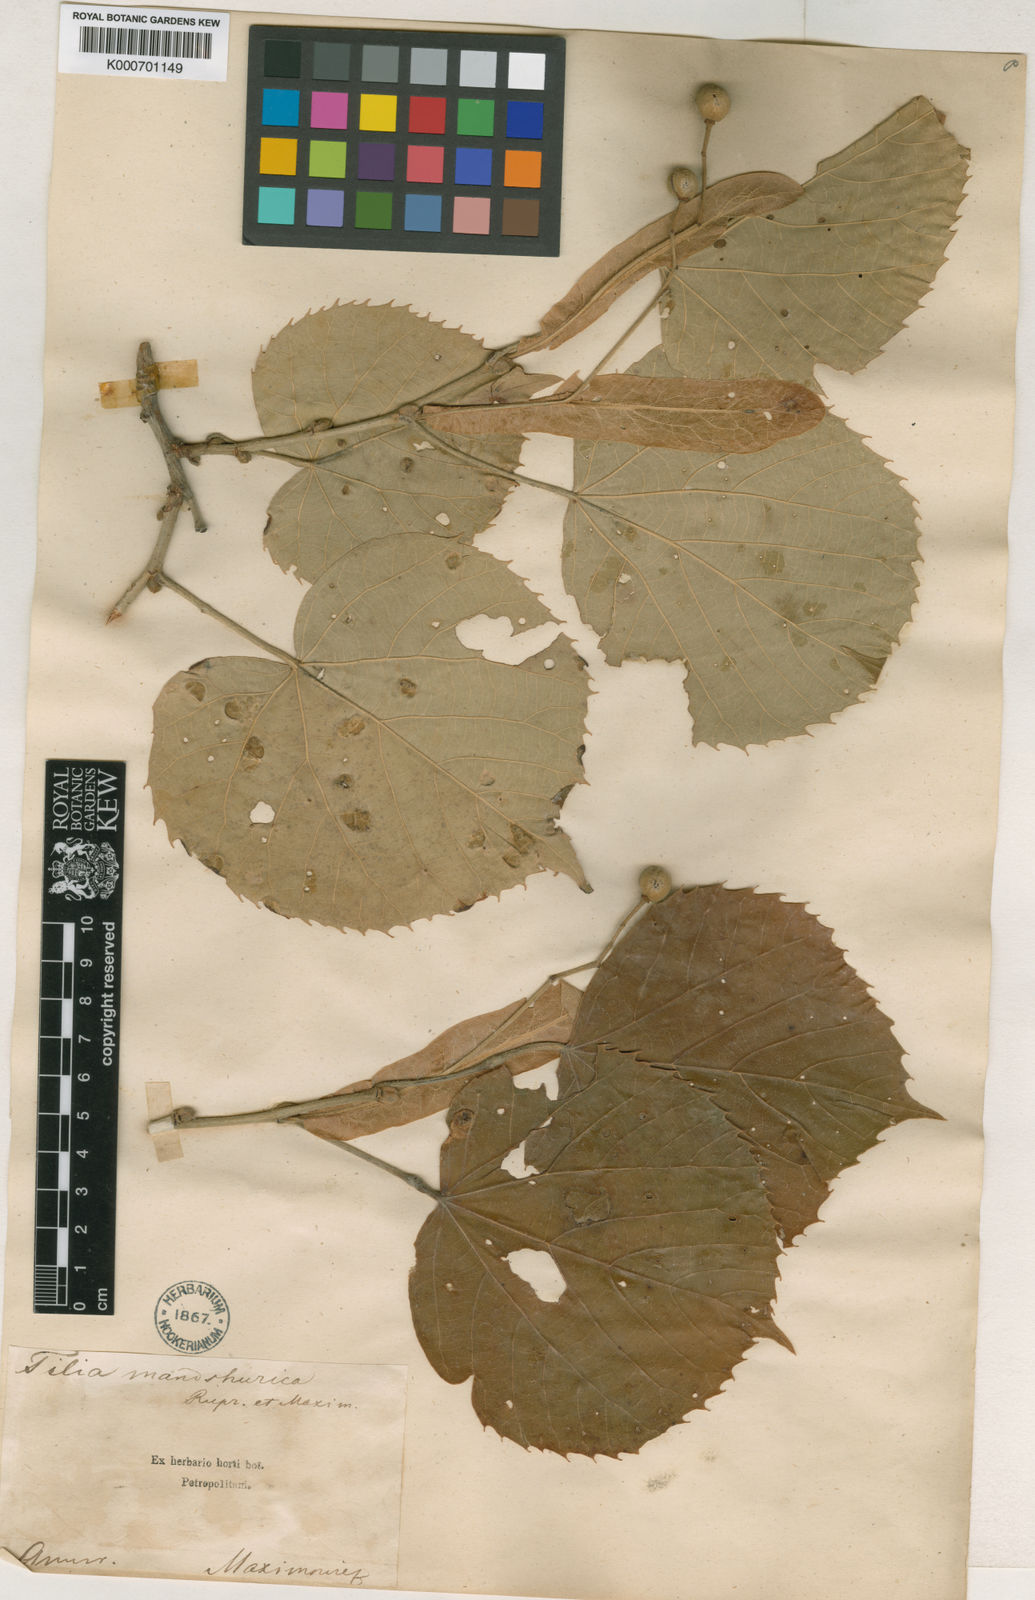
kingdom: Plantae
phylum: Tracheophyta
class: Magnoliopsida
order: Malvales
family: Malvaceae
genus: Tilia
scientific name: Tilia mandshurica
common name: Manchurian linden
